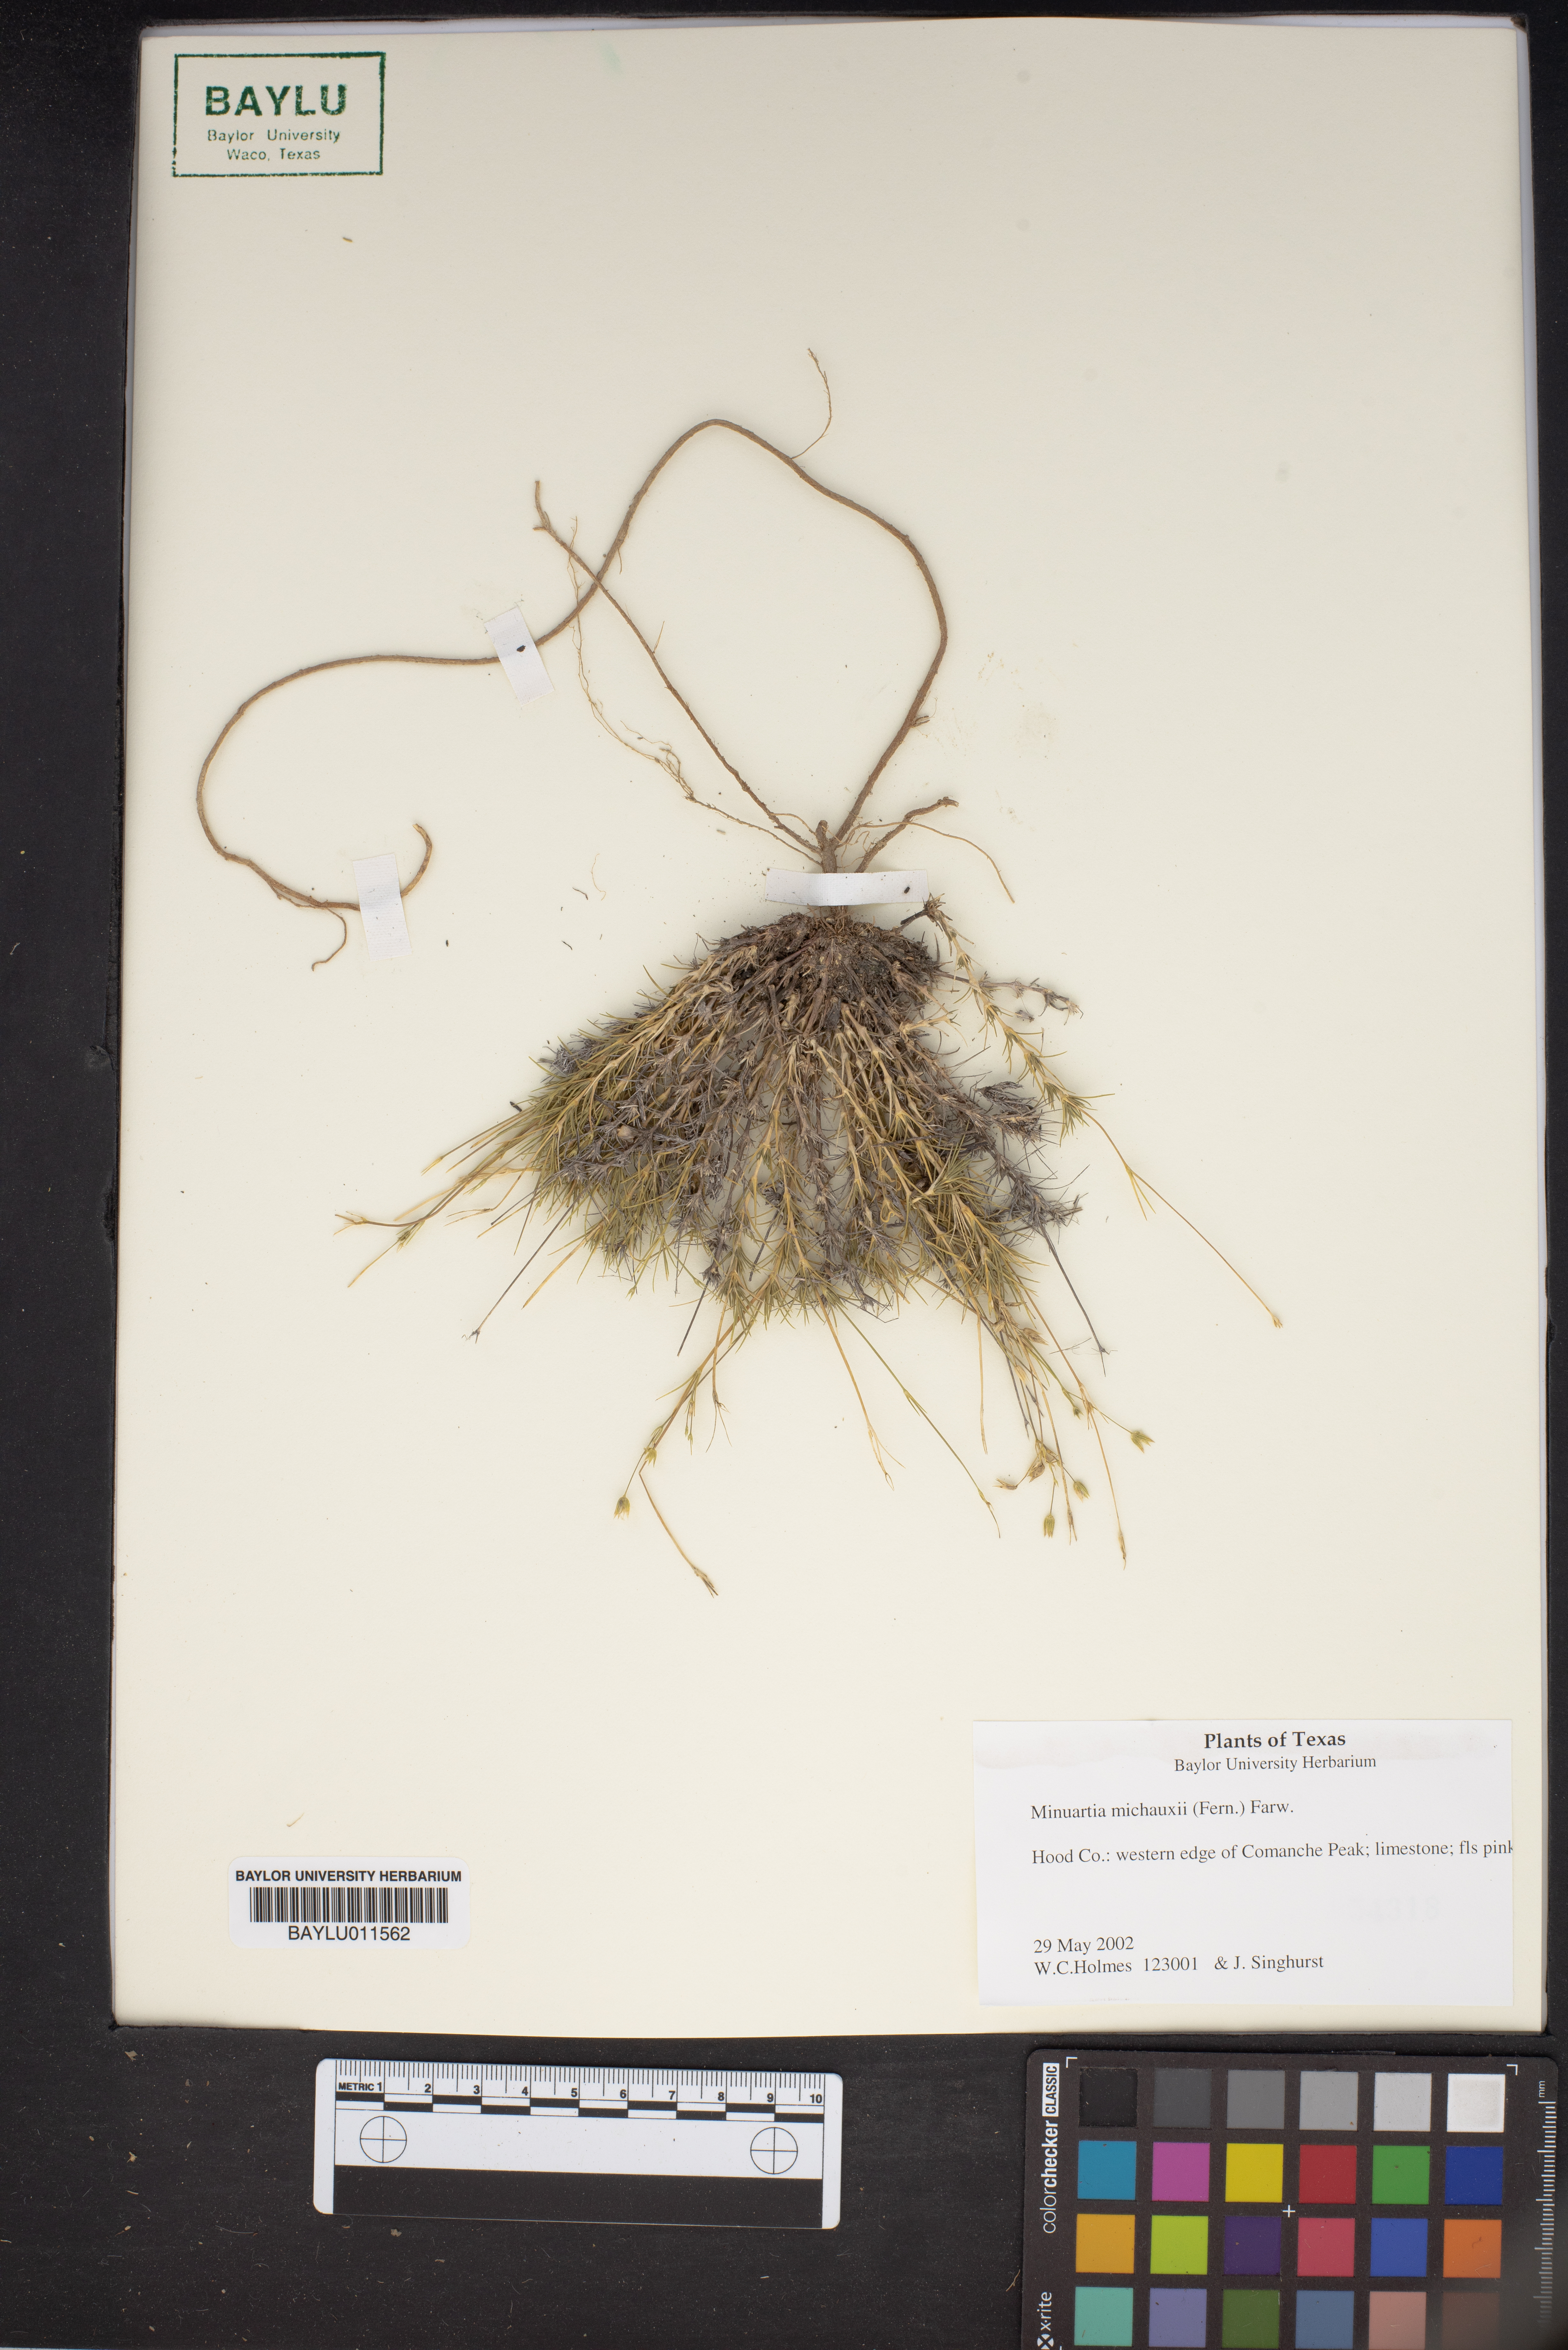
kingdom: Plantae
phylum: Tracheophyta
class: Magnoliopsida
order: Caryophyllales
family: Caryophyllaceae
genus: Sabulina
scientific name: Sabulina michauxii
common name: Michaux's stitchwort
